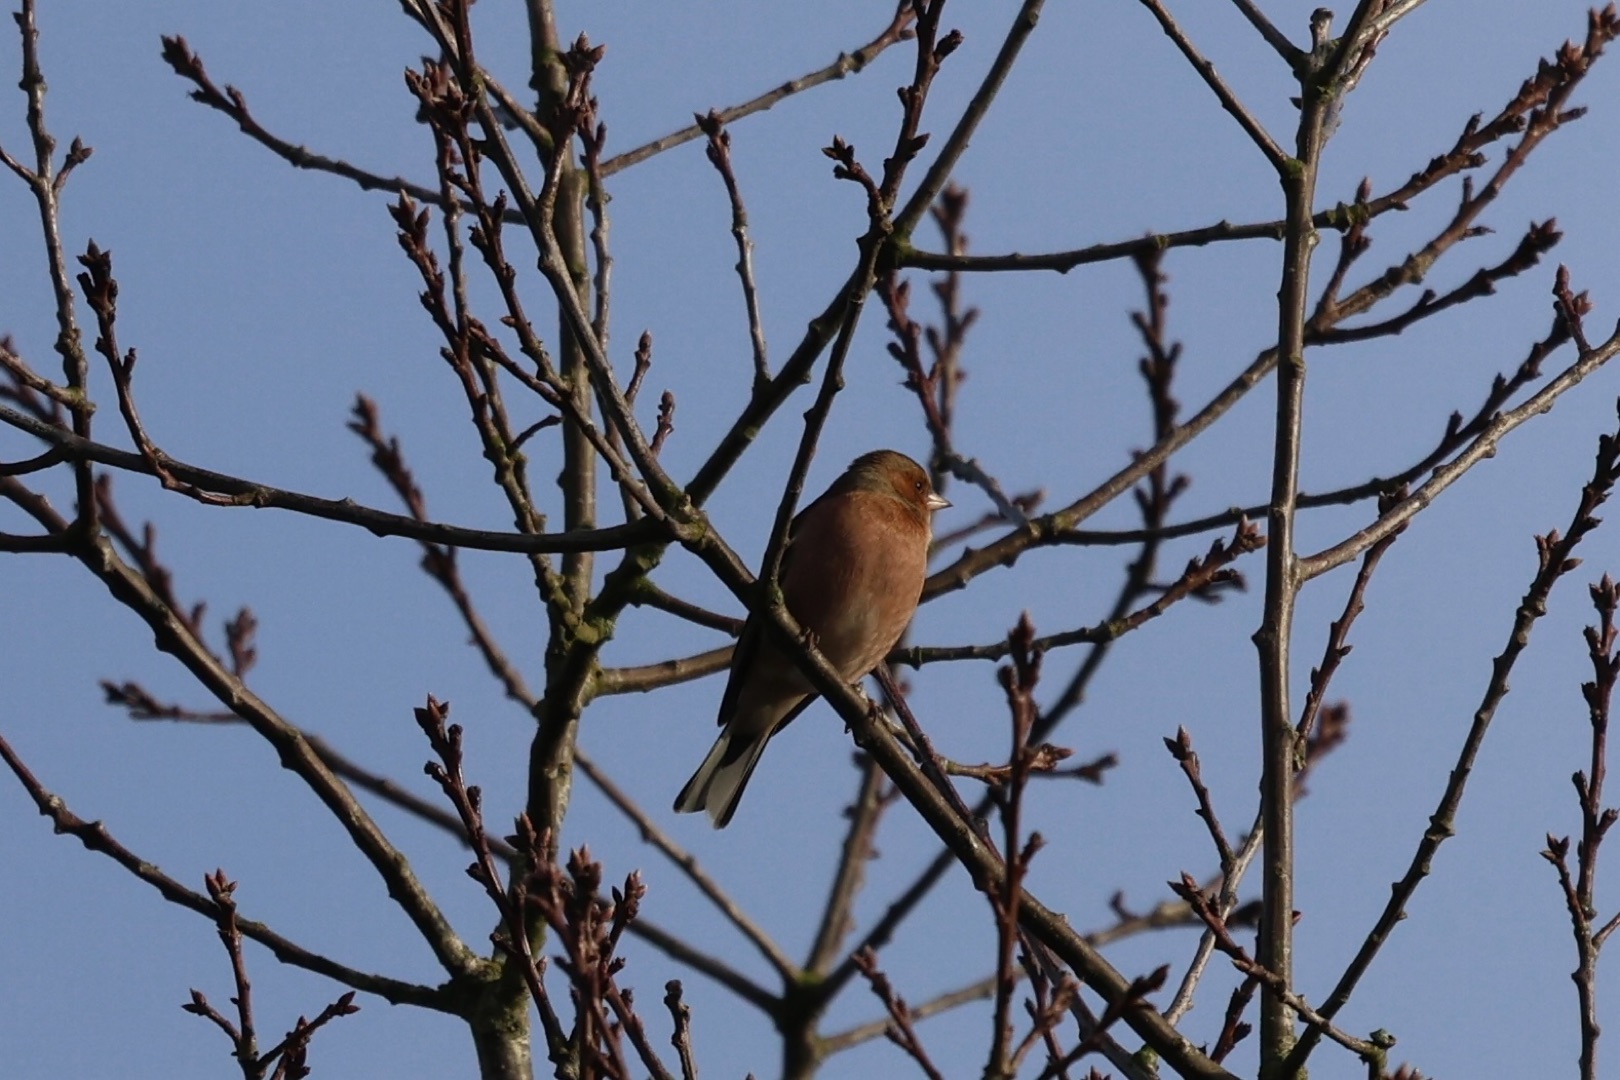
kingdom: Animalia
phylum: Chordata
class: Aves
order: Passeriformes
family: Fringillidae
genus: Fringilla
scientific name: Fringilla coelebs
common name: Bogfinke
